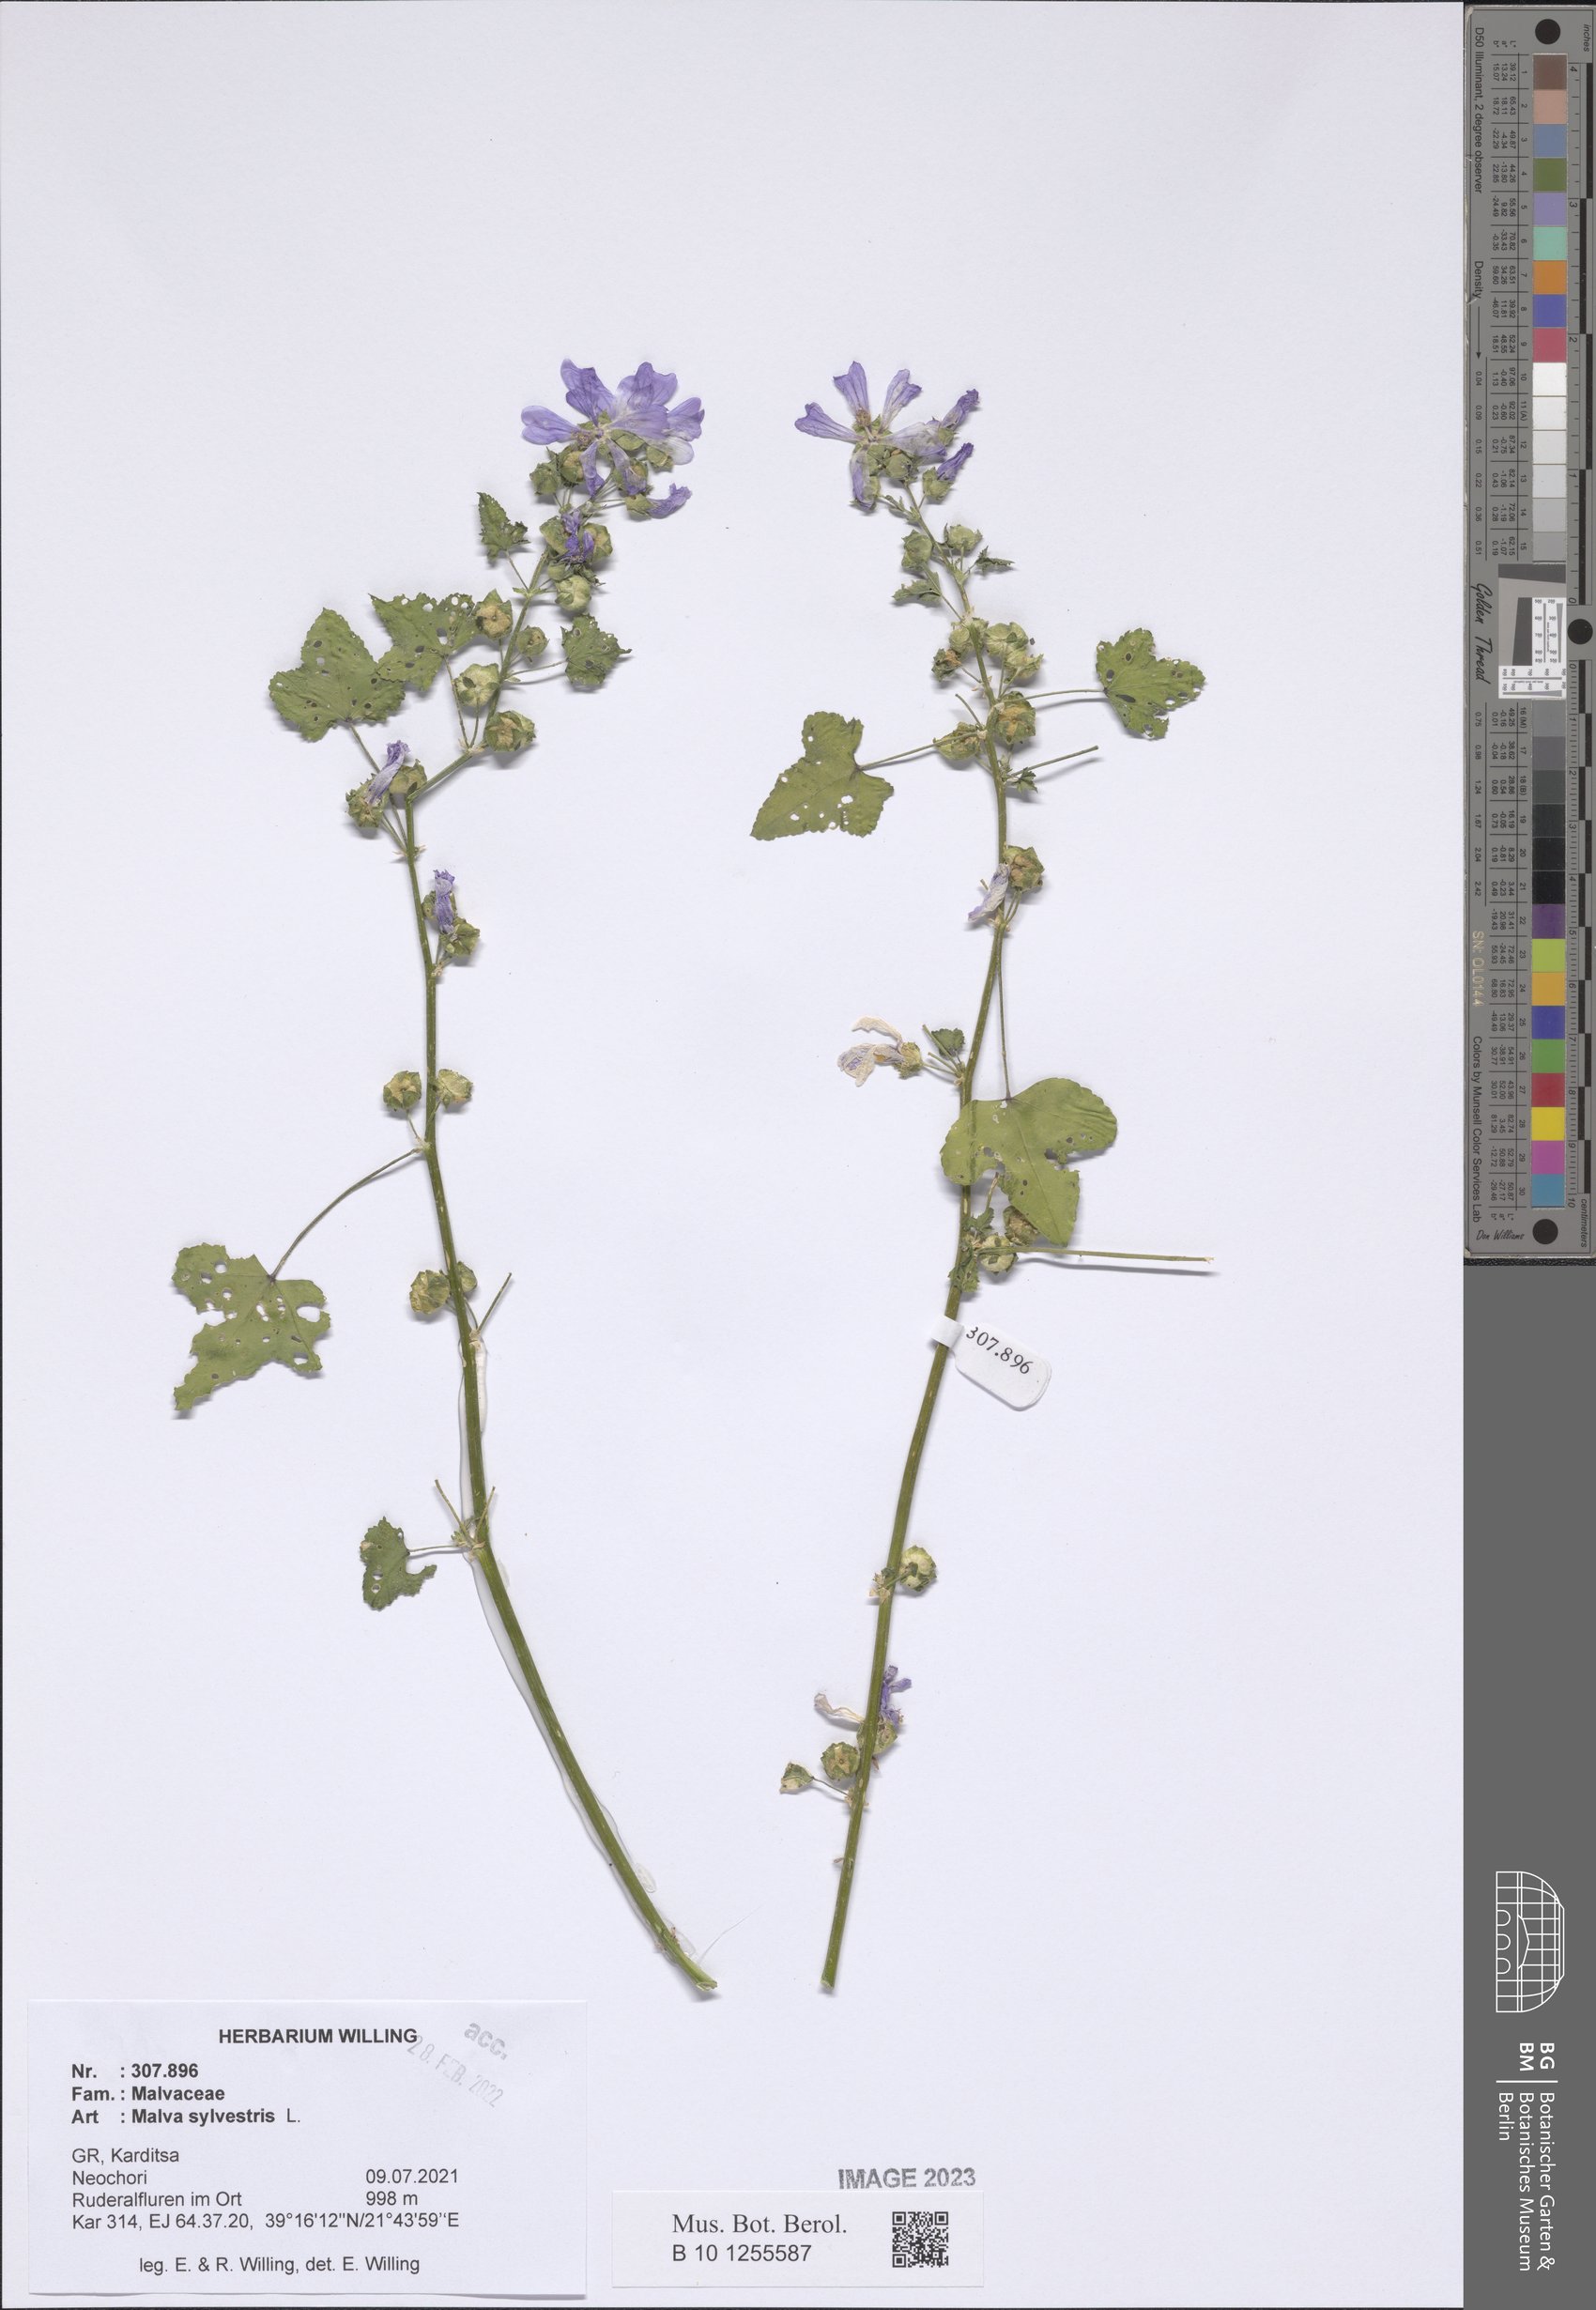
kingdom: Plantae
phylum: Tracheophyta
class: Magnoliopsida
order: Malvales
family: Malvaceae
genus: Malva
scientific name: Malva sylvestris
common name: Common mallow
